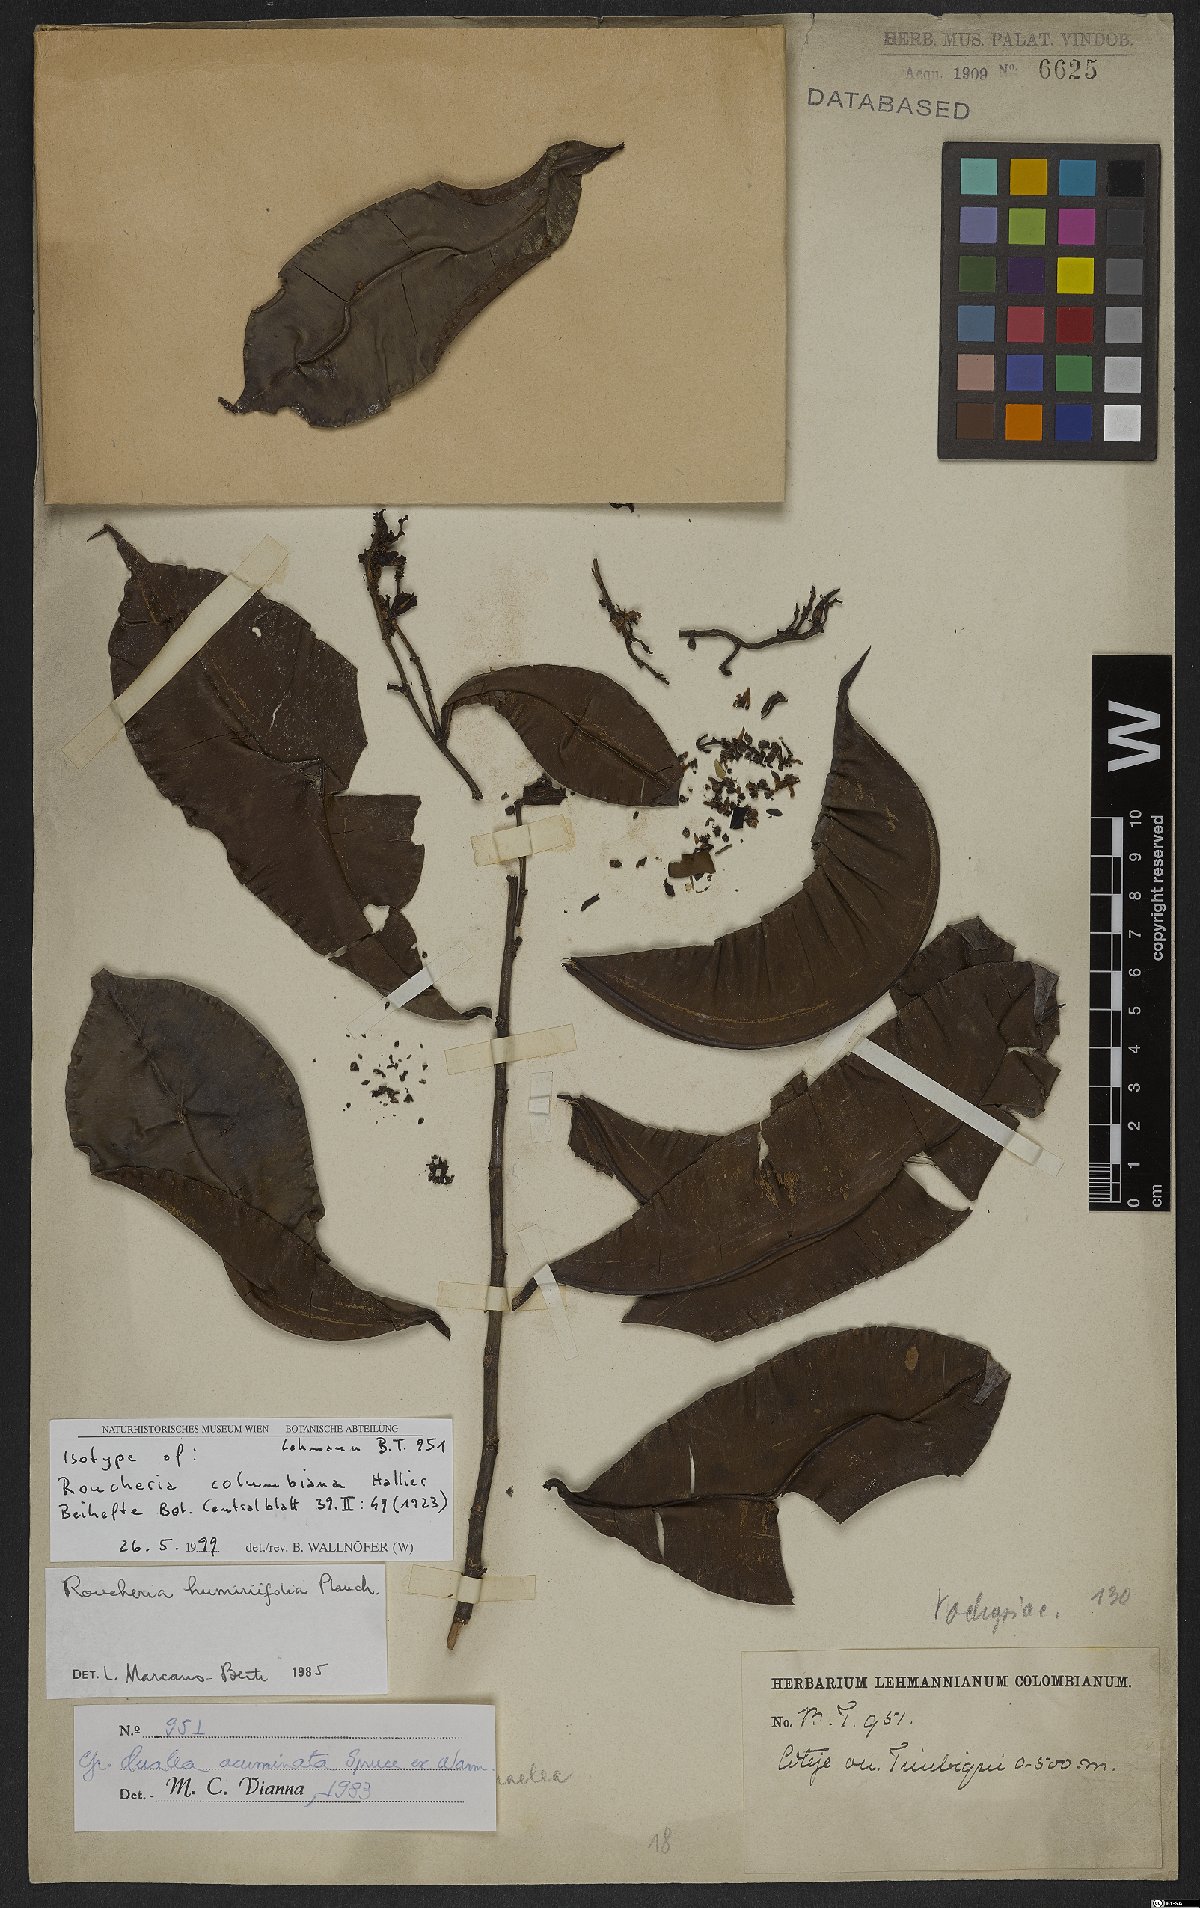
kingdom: Plantae
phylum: Tracheophyta
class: Magnoliopsida
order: Malpighiales
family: Linaceae
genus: Roucheria
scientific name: Roucheria columbiana
